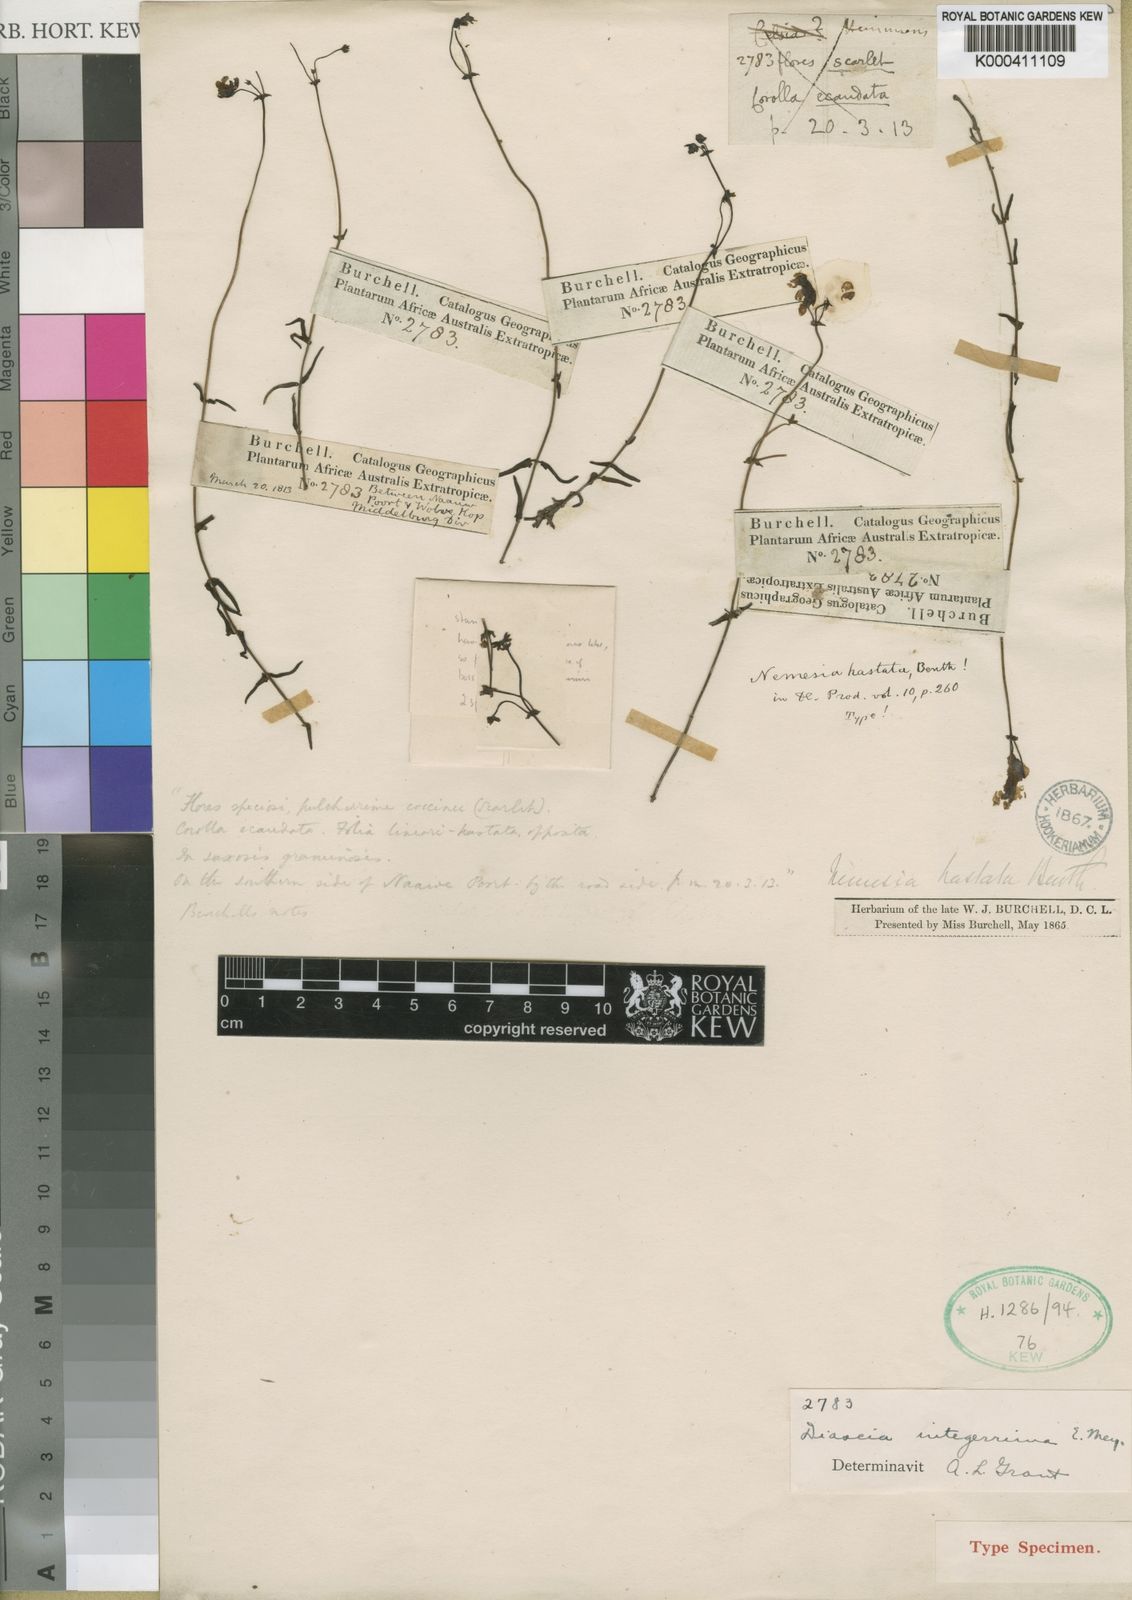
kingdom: Plantae
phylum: Tracheophyta
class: Magnoliopsida
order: Lamiales
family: Scrophulariaceae
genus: Diascia
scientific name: Diascia integerrima
